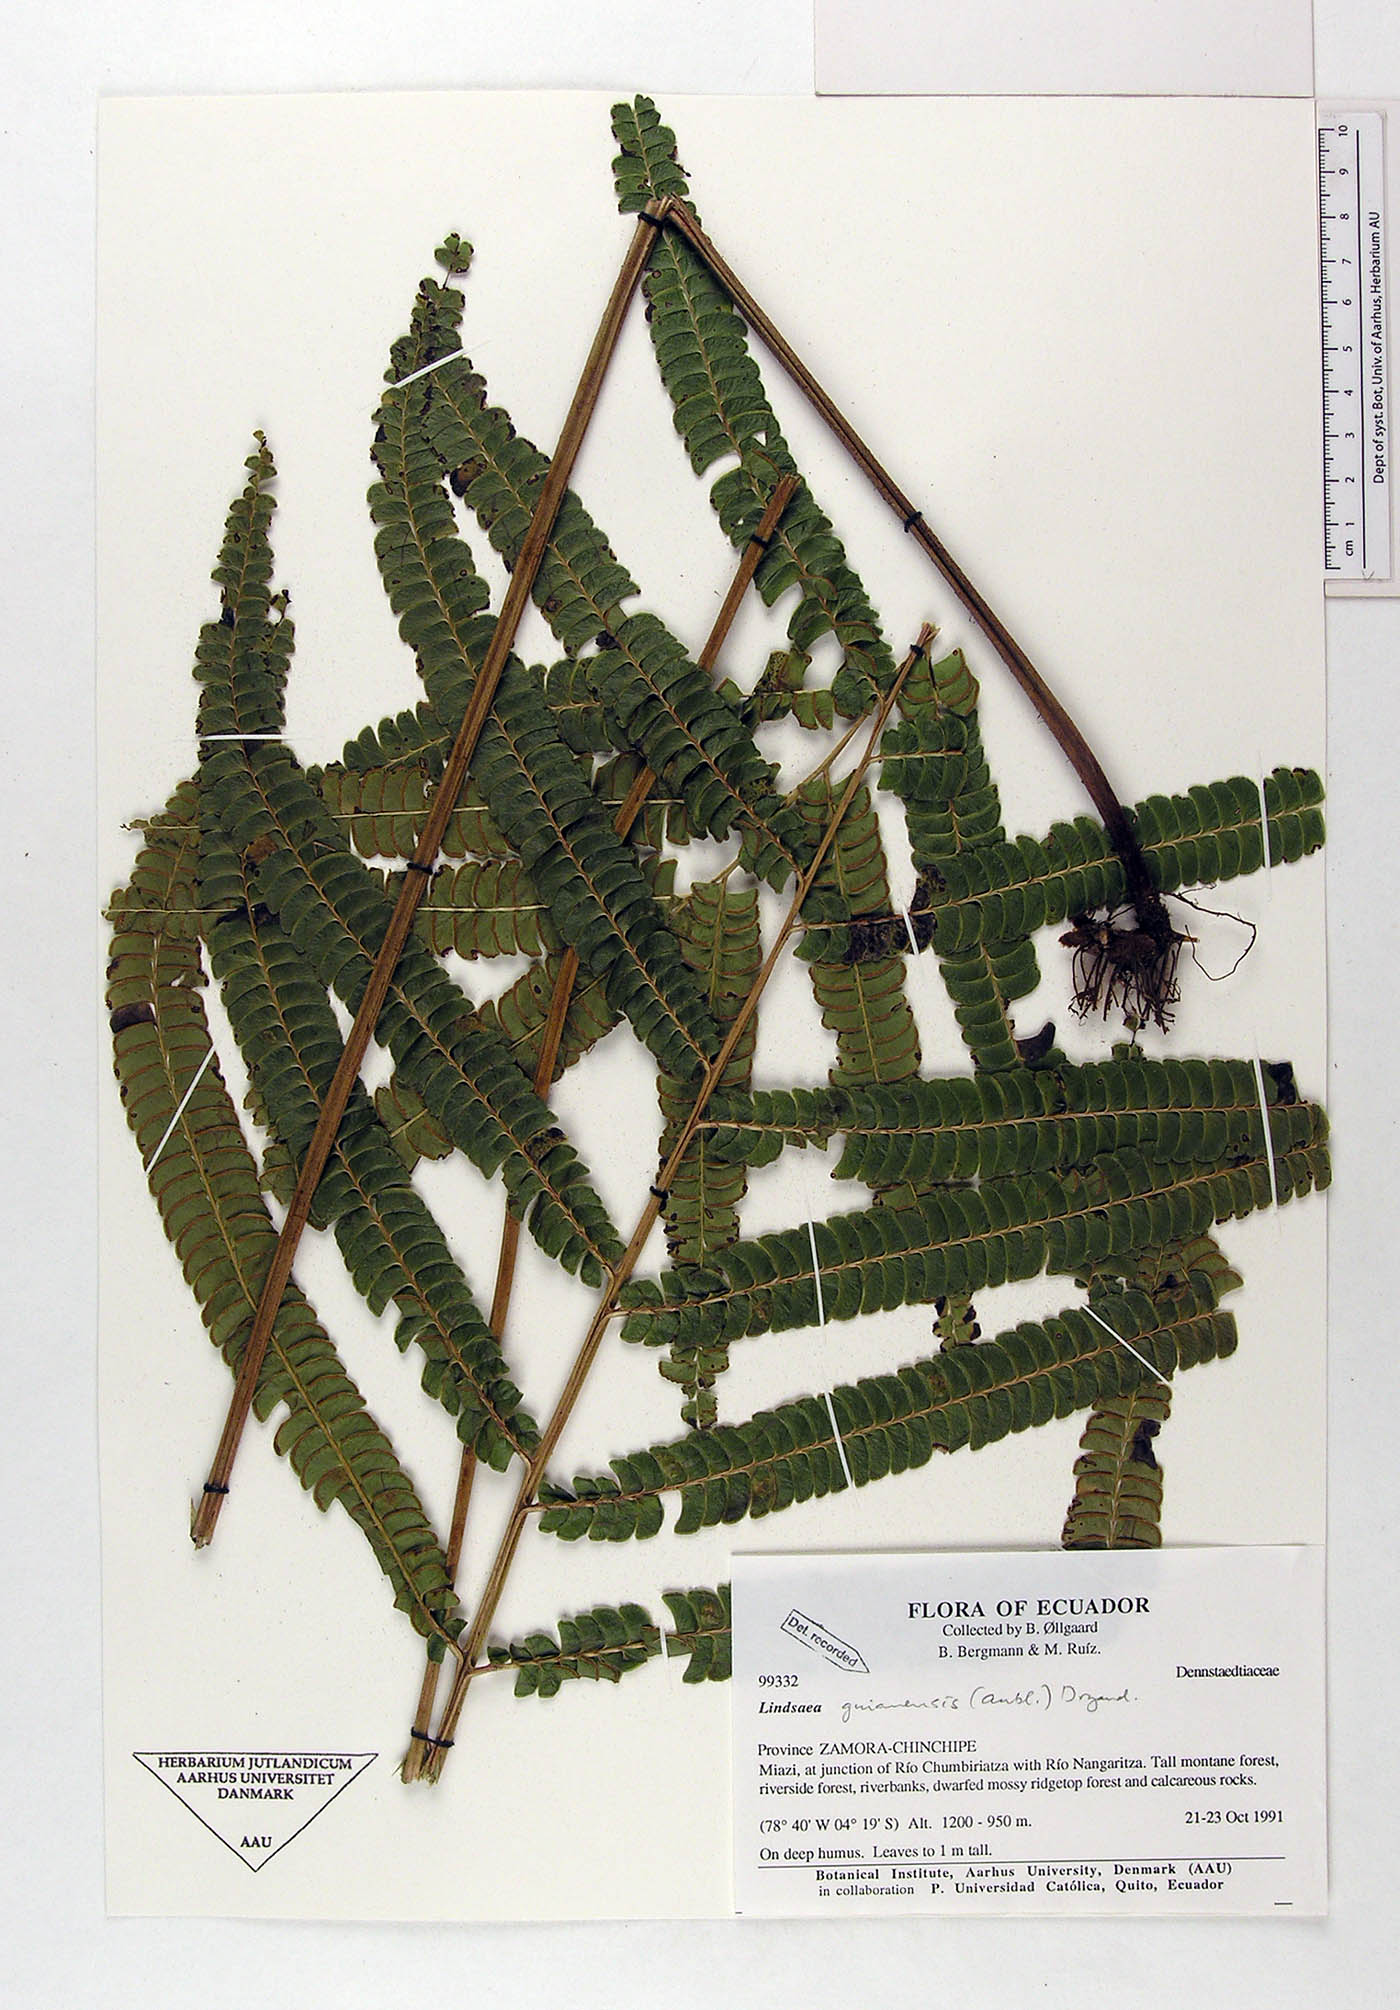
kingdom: Plantae
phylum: Tracheophyta
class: Polypodiopsida
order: Polypodiales
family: Lindsaeaceae
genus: Lindsaea
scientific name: Lindsaea guianensis
